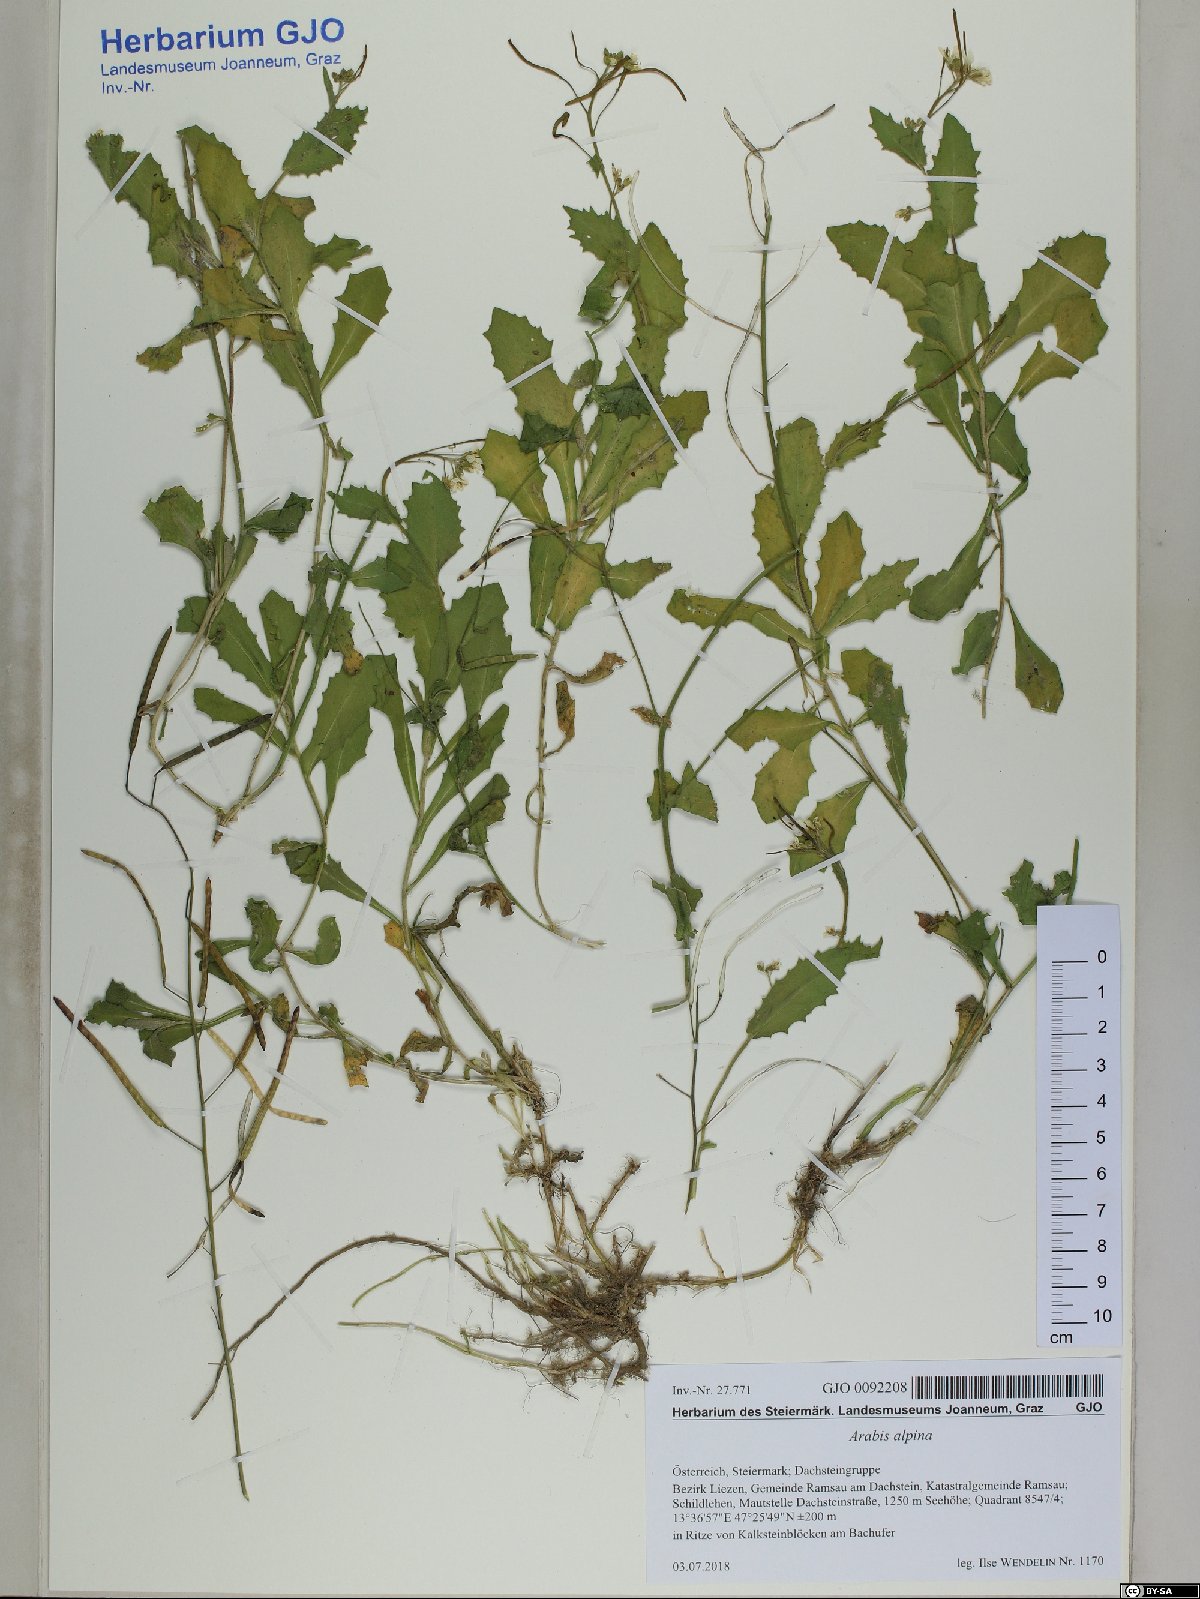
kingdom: Plantae
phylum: Tracheophyta
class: Magnoliopsida
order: Brassicales
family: Brassicaceae
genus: Arabis
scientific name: Arabis alpina
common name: Alpine rock-cress
